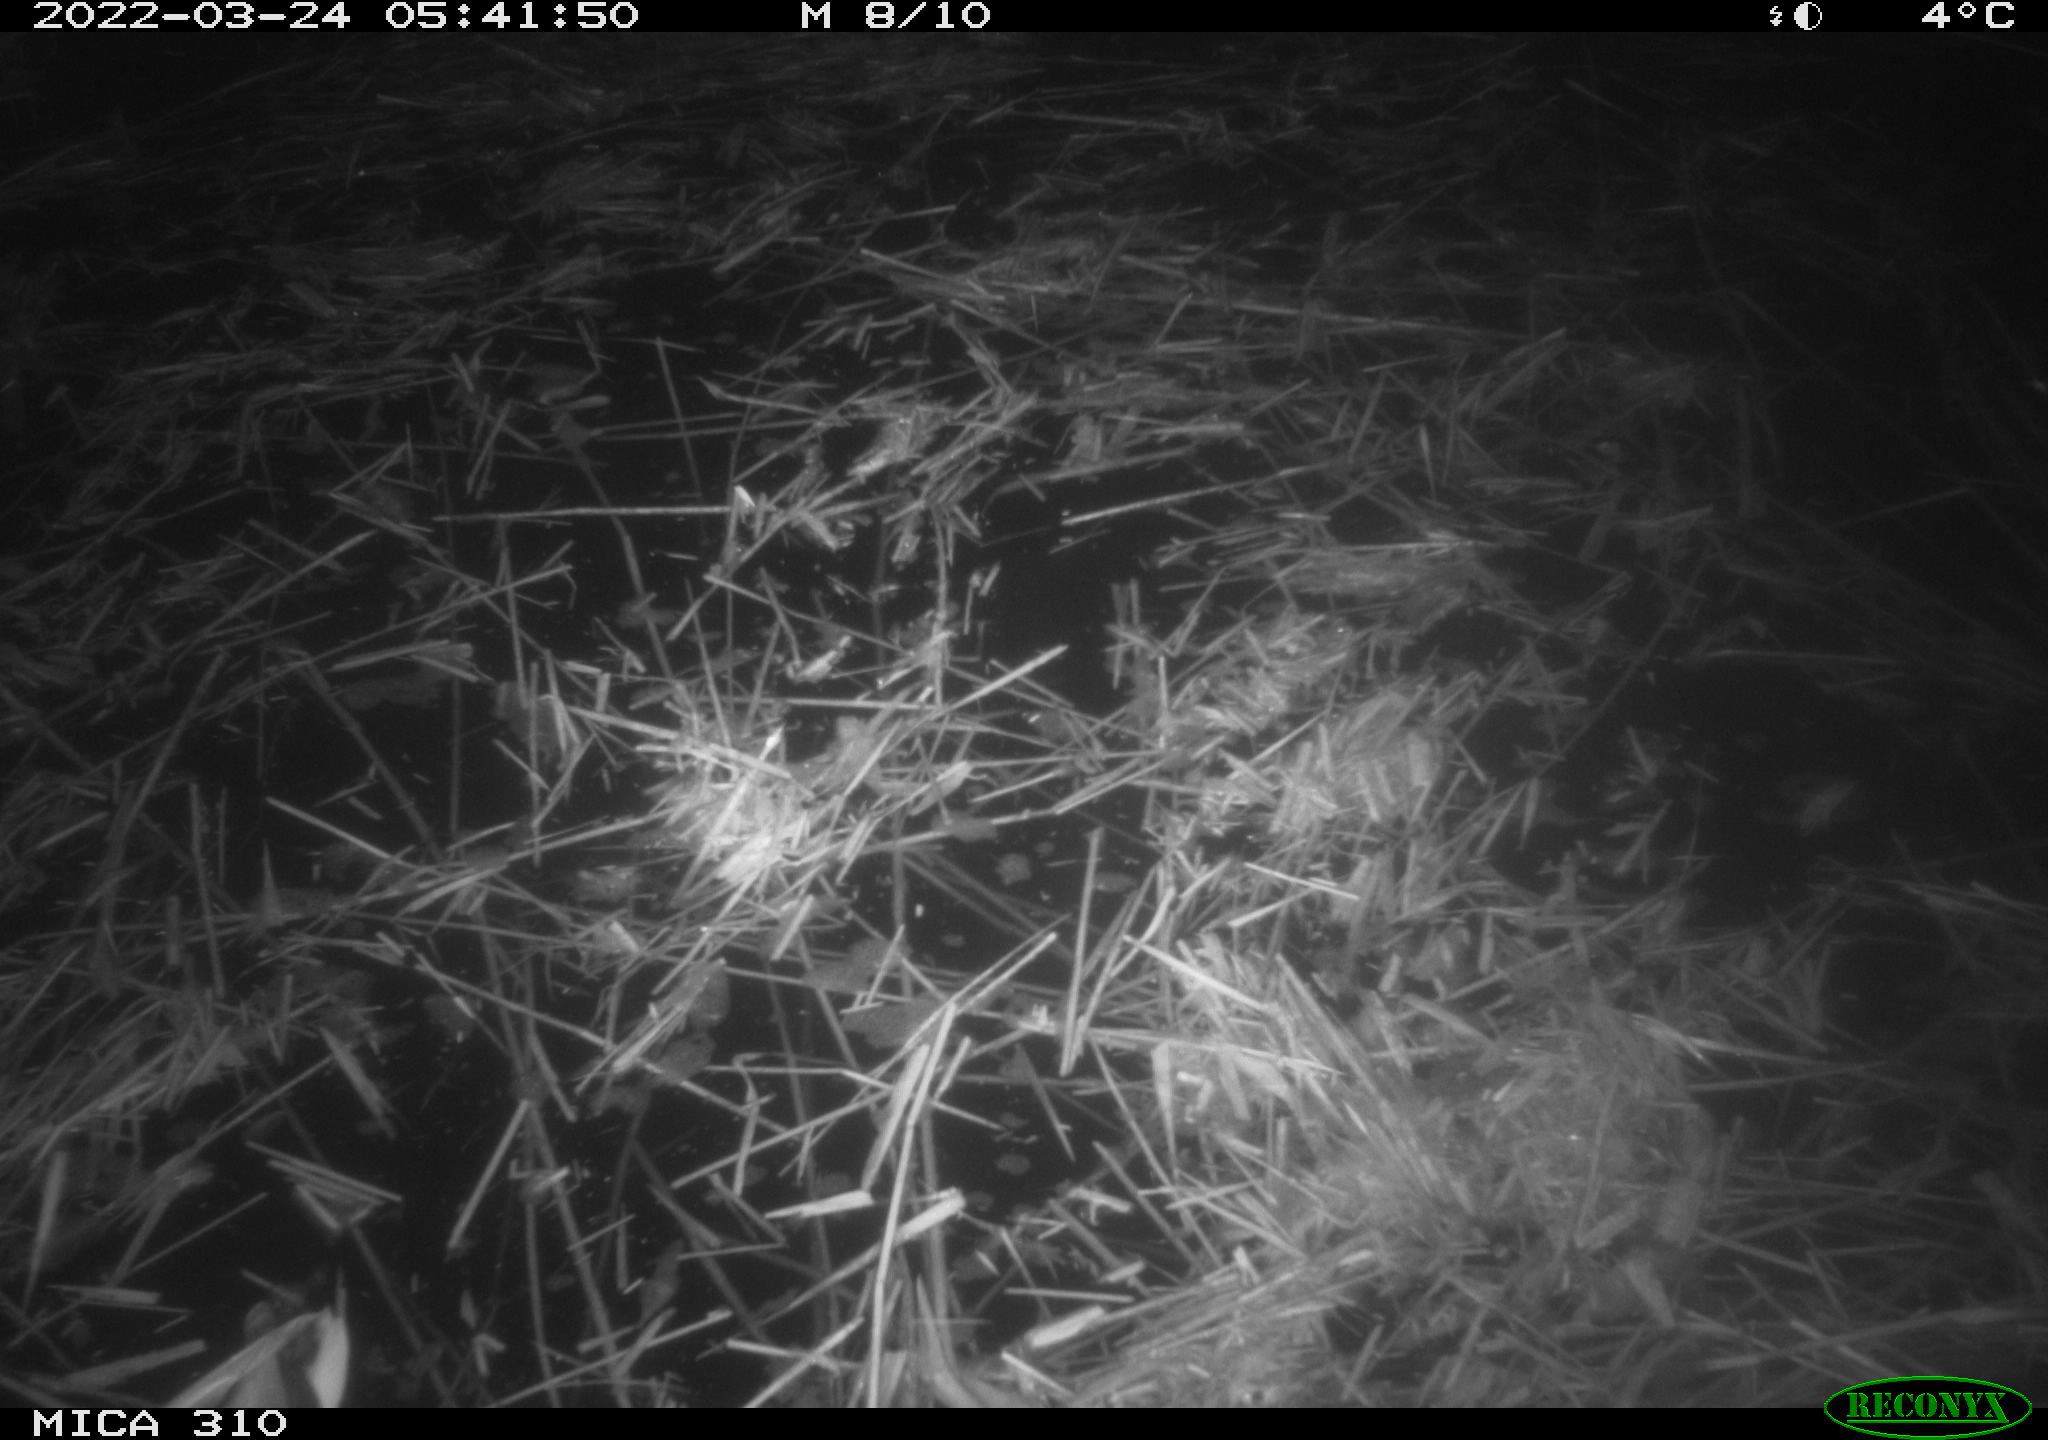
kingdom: Animalia
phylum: Chordata
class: Aves
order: Anseriformes
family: Anatidae
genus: Anas
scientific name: Anas platyrhynchos
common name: Mallard
